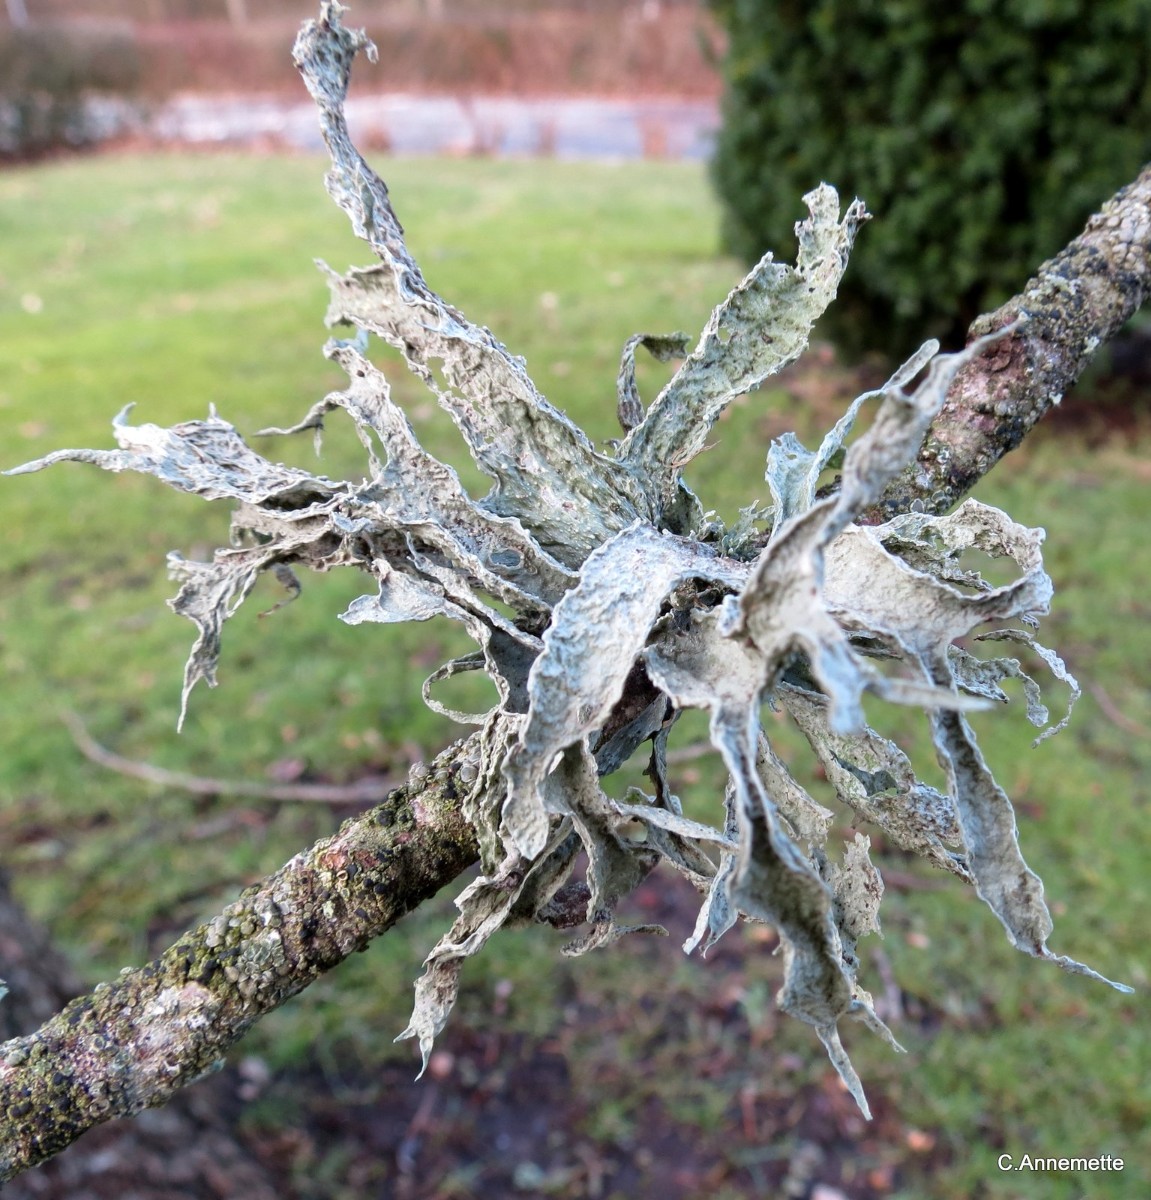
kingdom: Fungi
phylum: Ascomycota
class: Lecanoromycetes
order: Lecanorales
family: Ramalinaceae
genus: Ramalina
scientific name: Ramalina fraxinea
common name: stor grenlav
